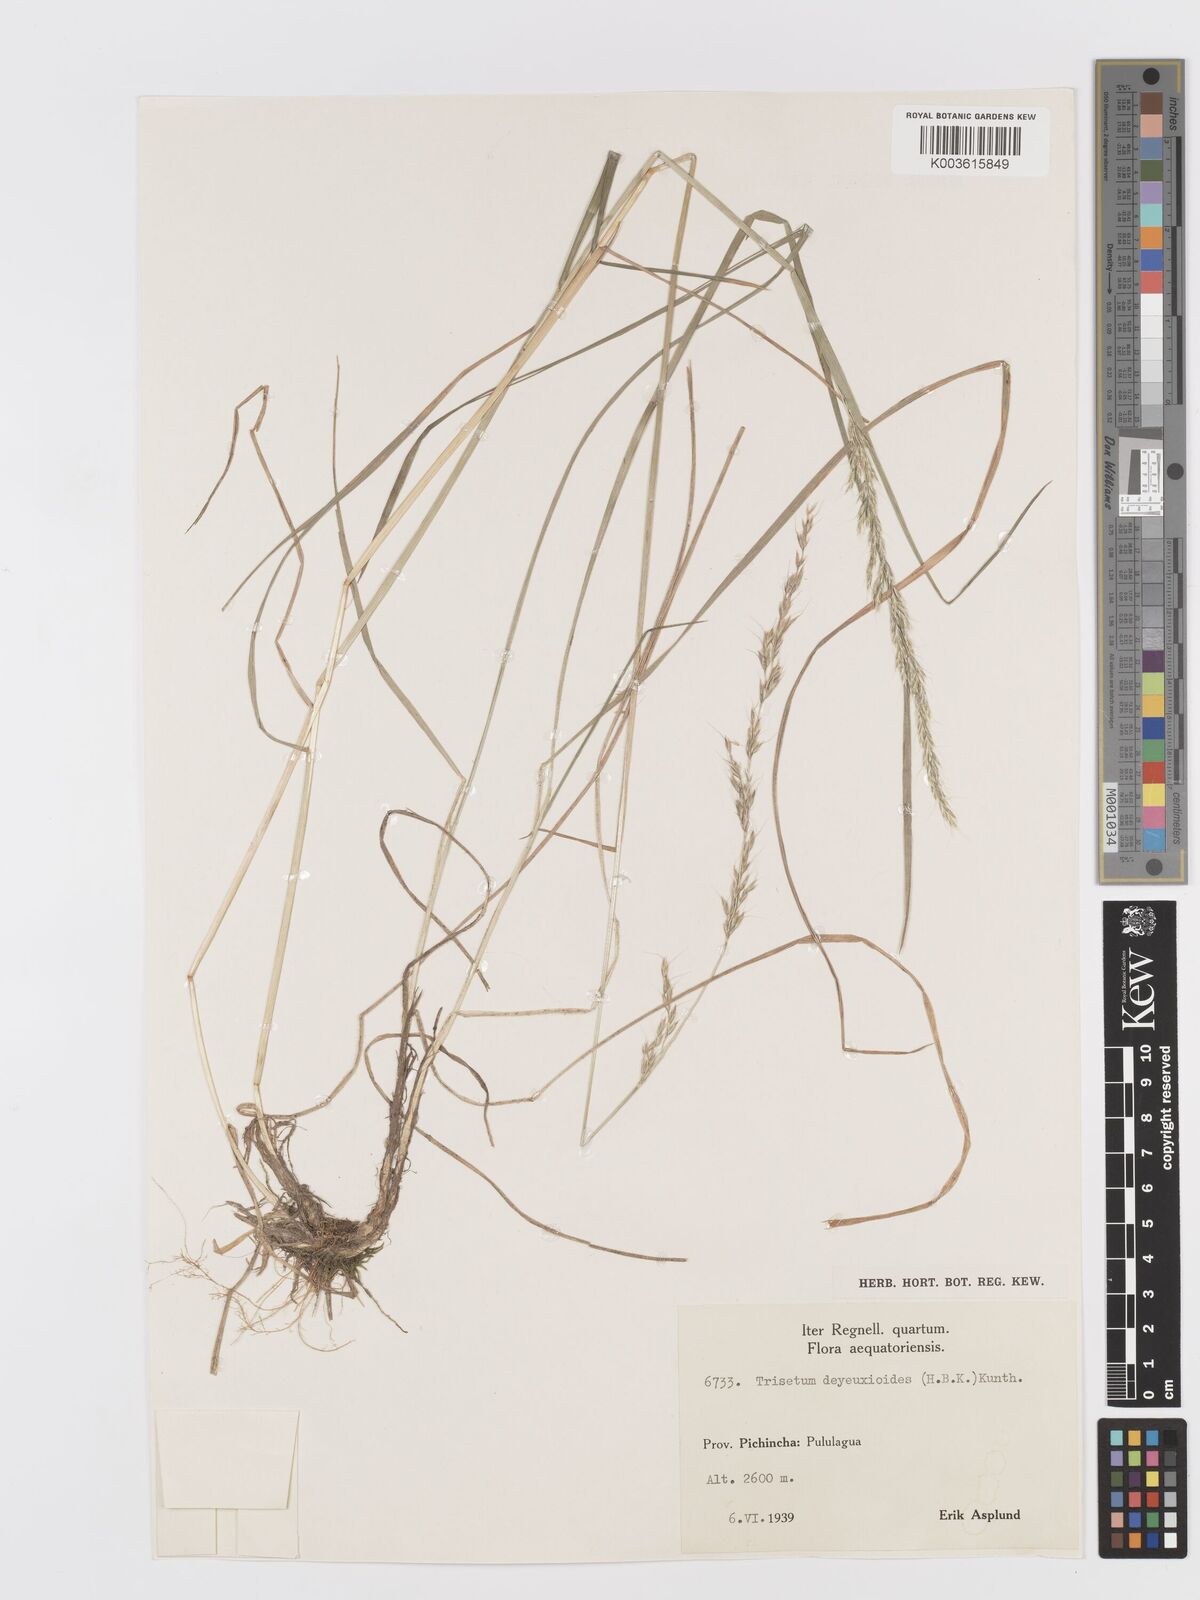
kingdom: Plantae
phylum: Tracheophyta
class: Liliopsida
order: Poales
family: Poaceae
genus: Peyritschia
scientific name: Peyritschia irazuensis
